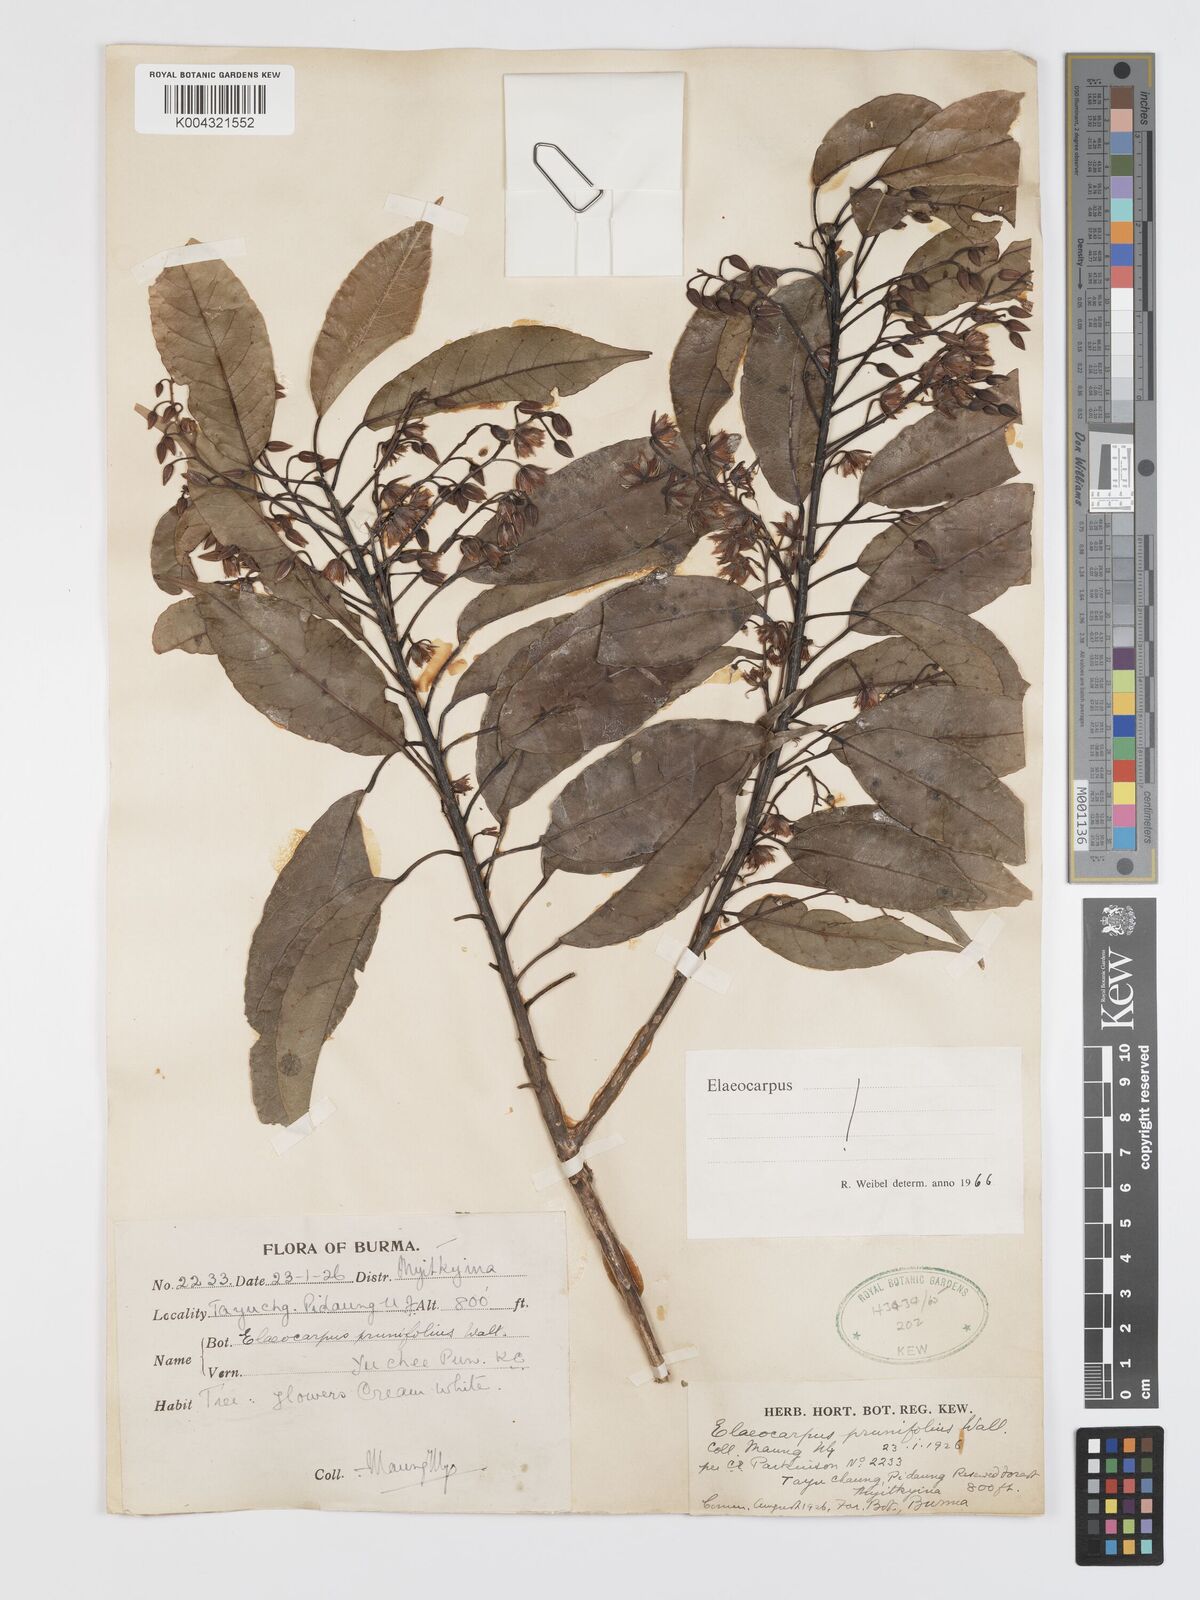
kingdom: Plantae
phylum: Tracheophyta
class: Magnoliopsida
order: Oxalidales
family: Elaeocarpaceae
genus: Elaeocarpus
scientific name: Elaeocarpus prunifolius
